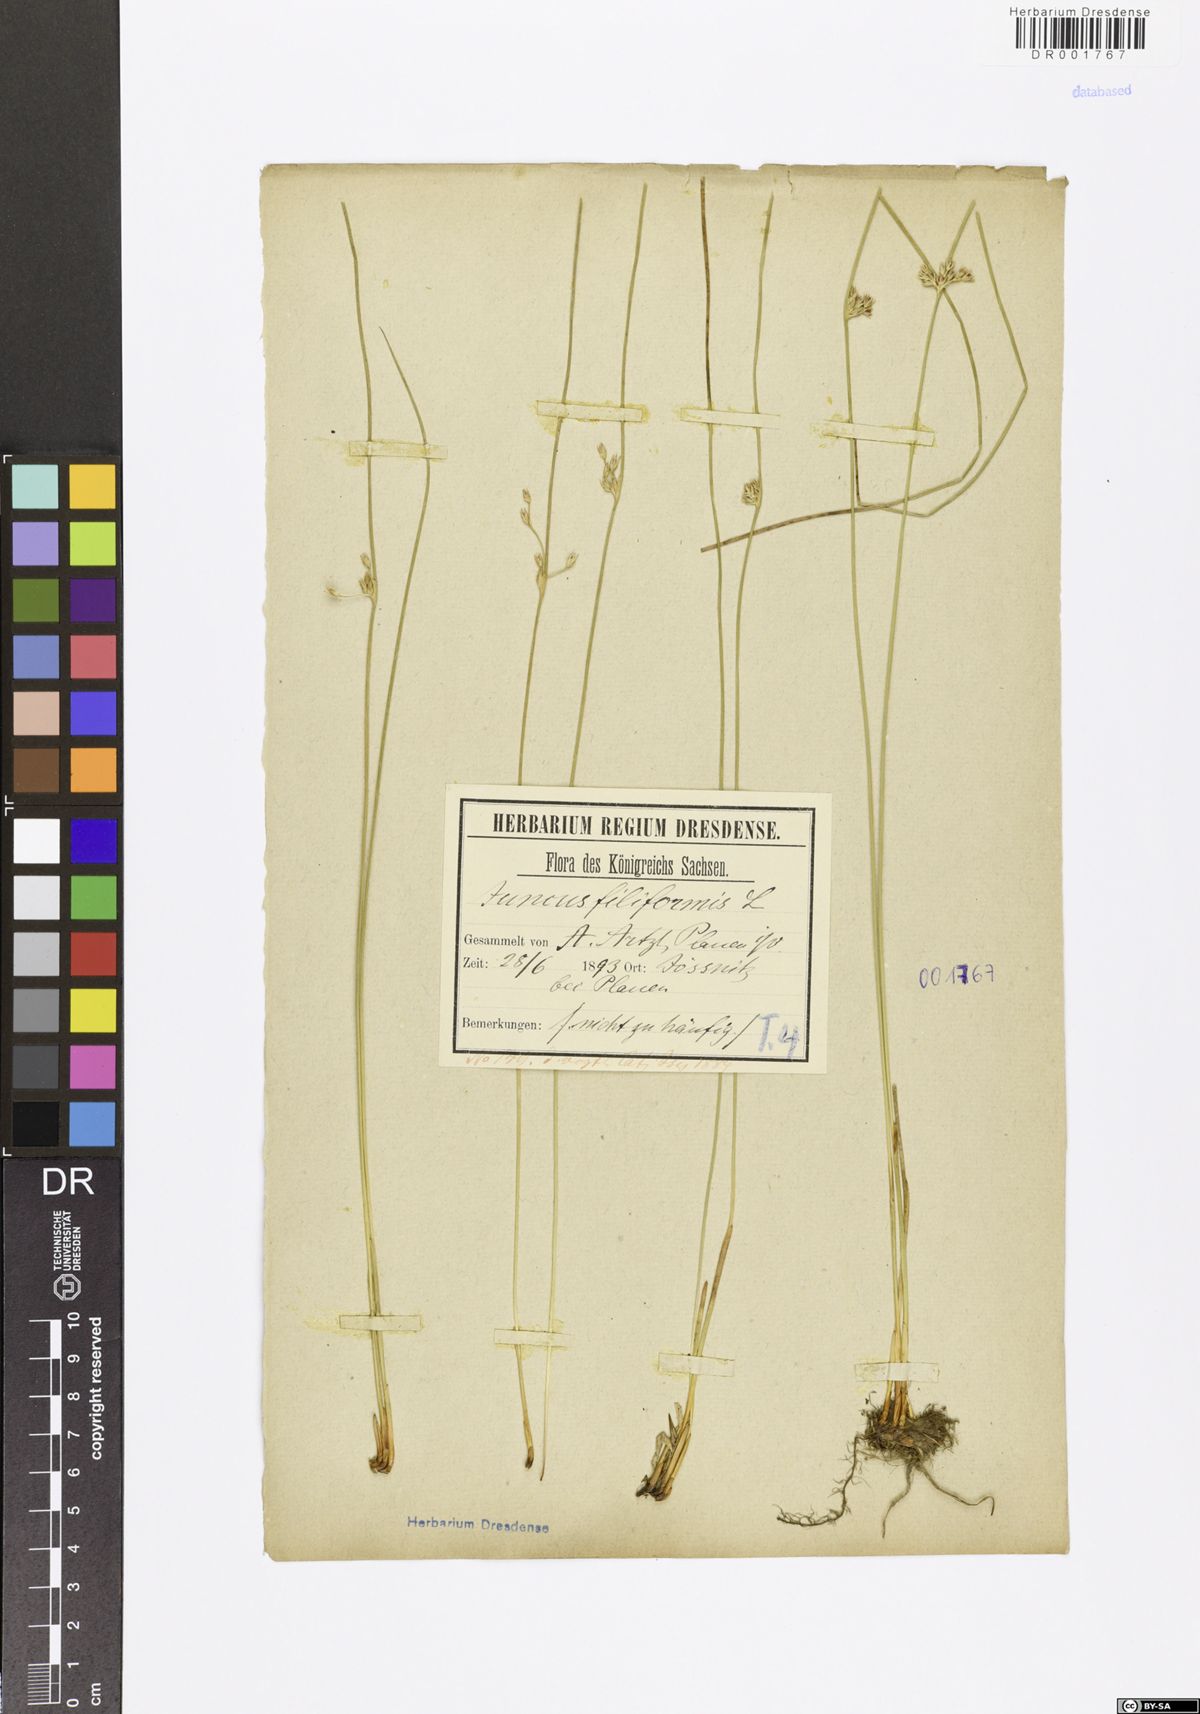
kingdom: Plantae
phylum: Tracheophyta
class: Liliopsida
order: Poales
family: Juncaceae
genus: Juncus
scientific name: Juncus inflexus
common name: Hard rush
